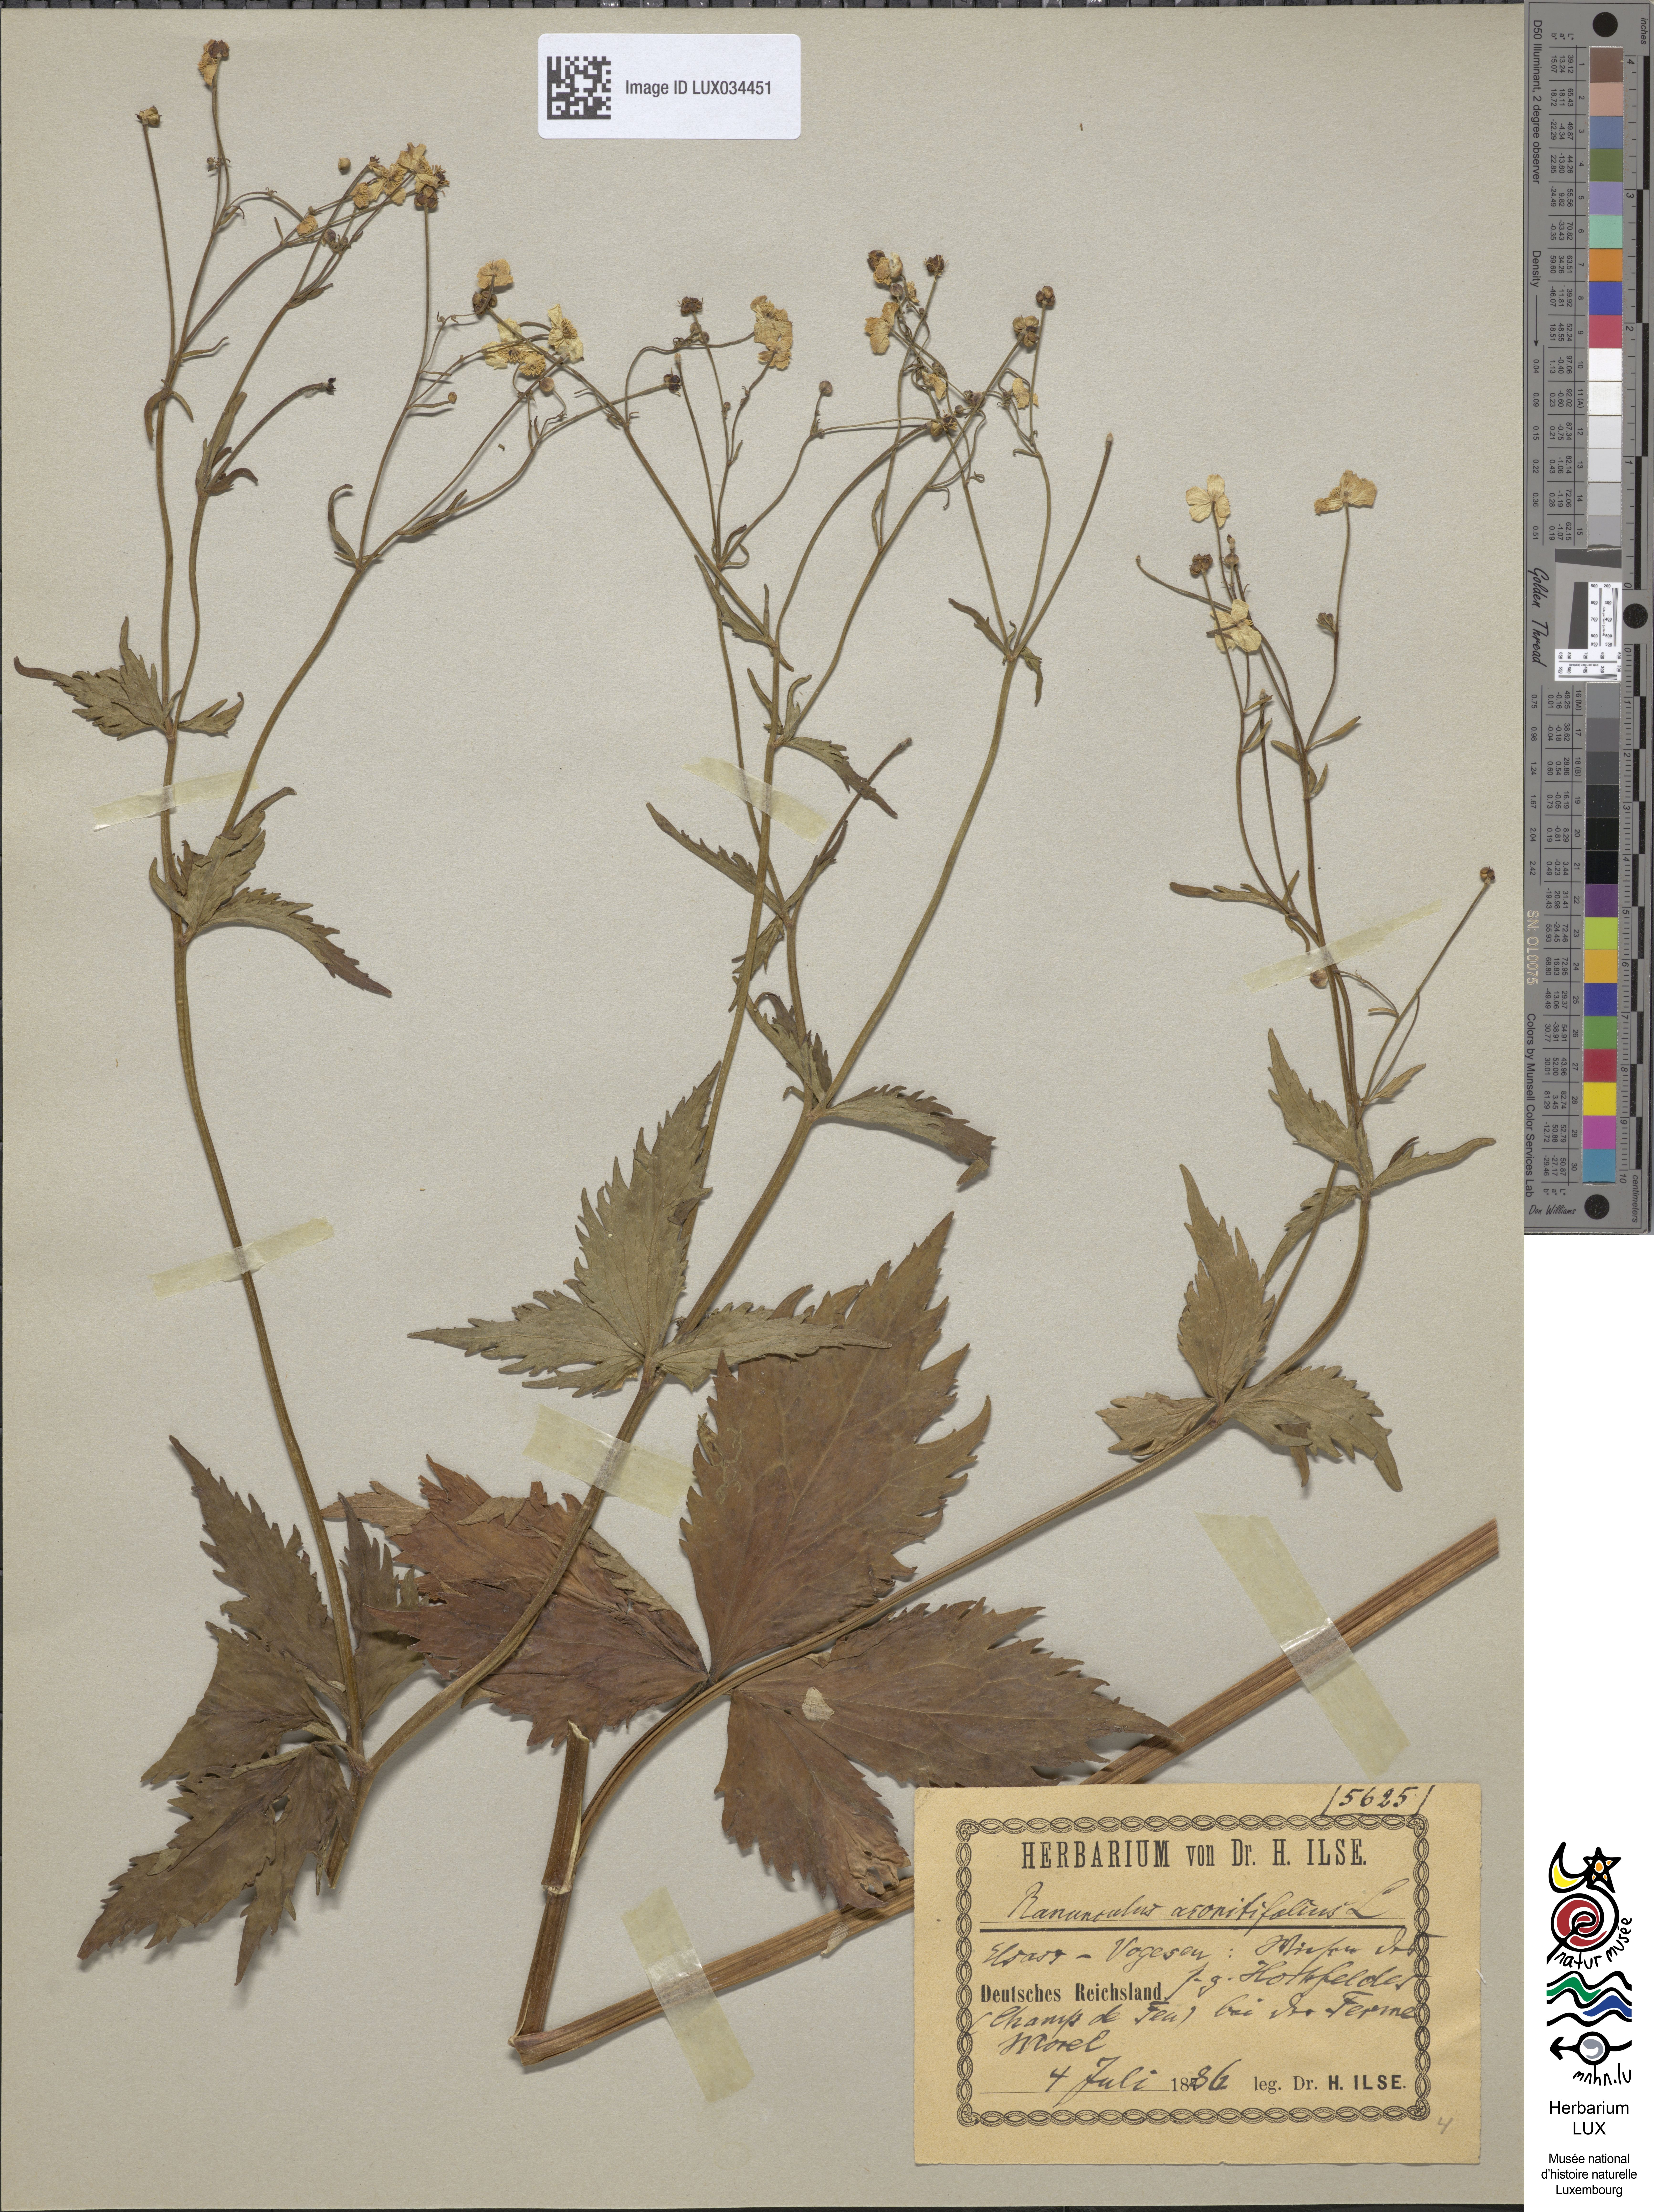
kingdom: Plantae
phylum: Tracheophyta
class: Magnoliopsida
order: Ranunculales
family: Ranunculaceae
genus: Ranunculus
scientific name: Ranunculus aconitifolius
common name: Aconite-leaved buttercup
